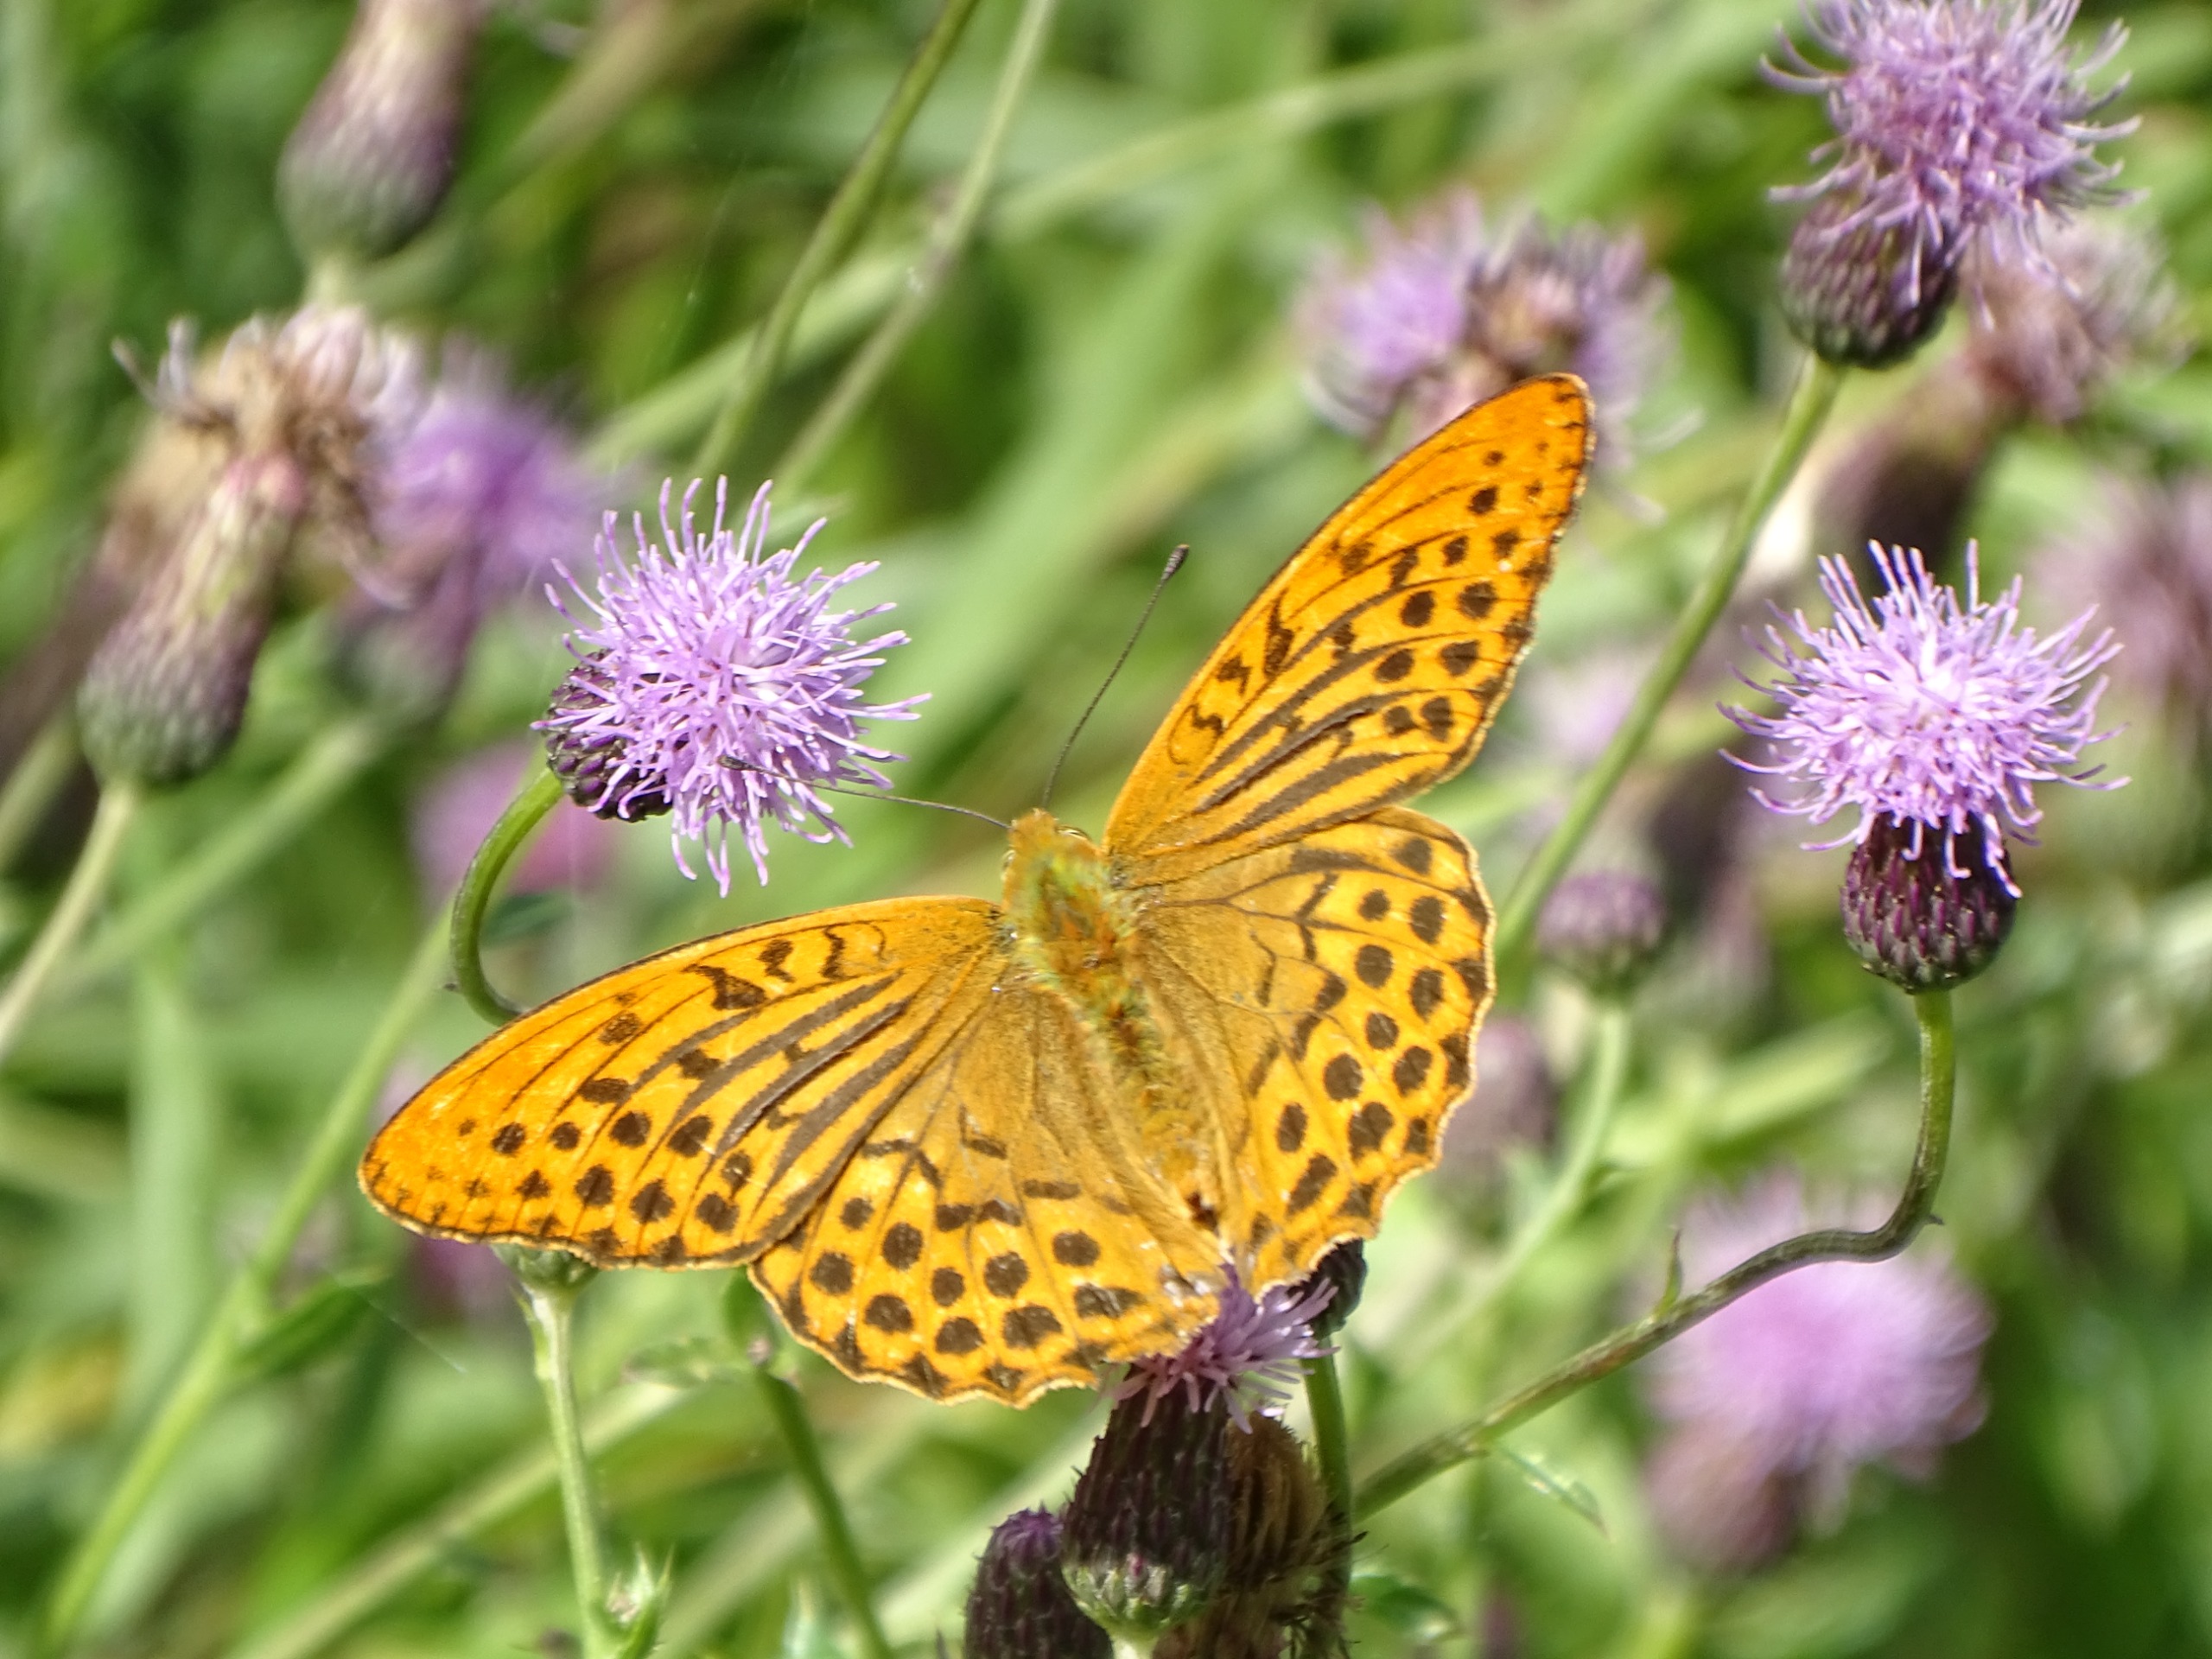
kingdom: Animalia
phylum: Arthropoda
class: Insecta
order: Lepidoptera
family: Nymphalidae
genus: Argynnis
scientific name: Argynnis paphia
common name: Kejserkåbe
